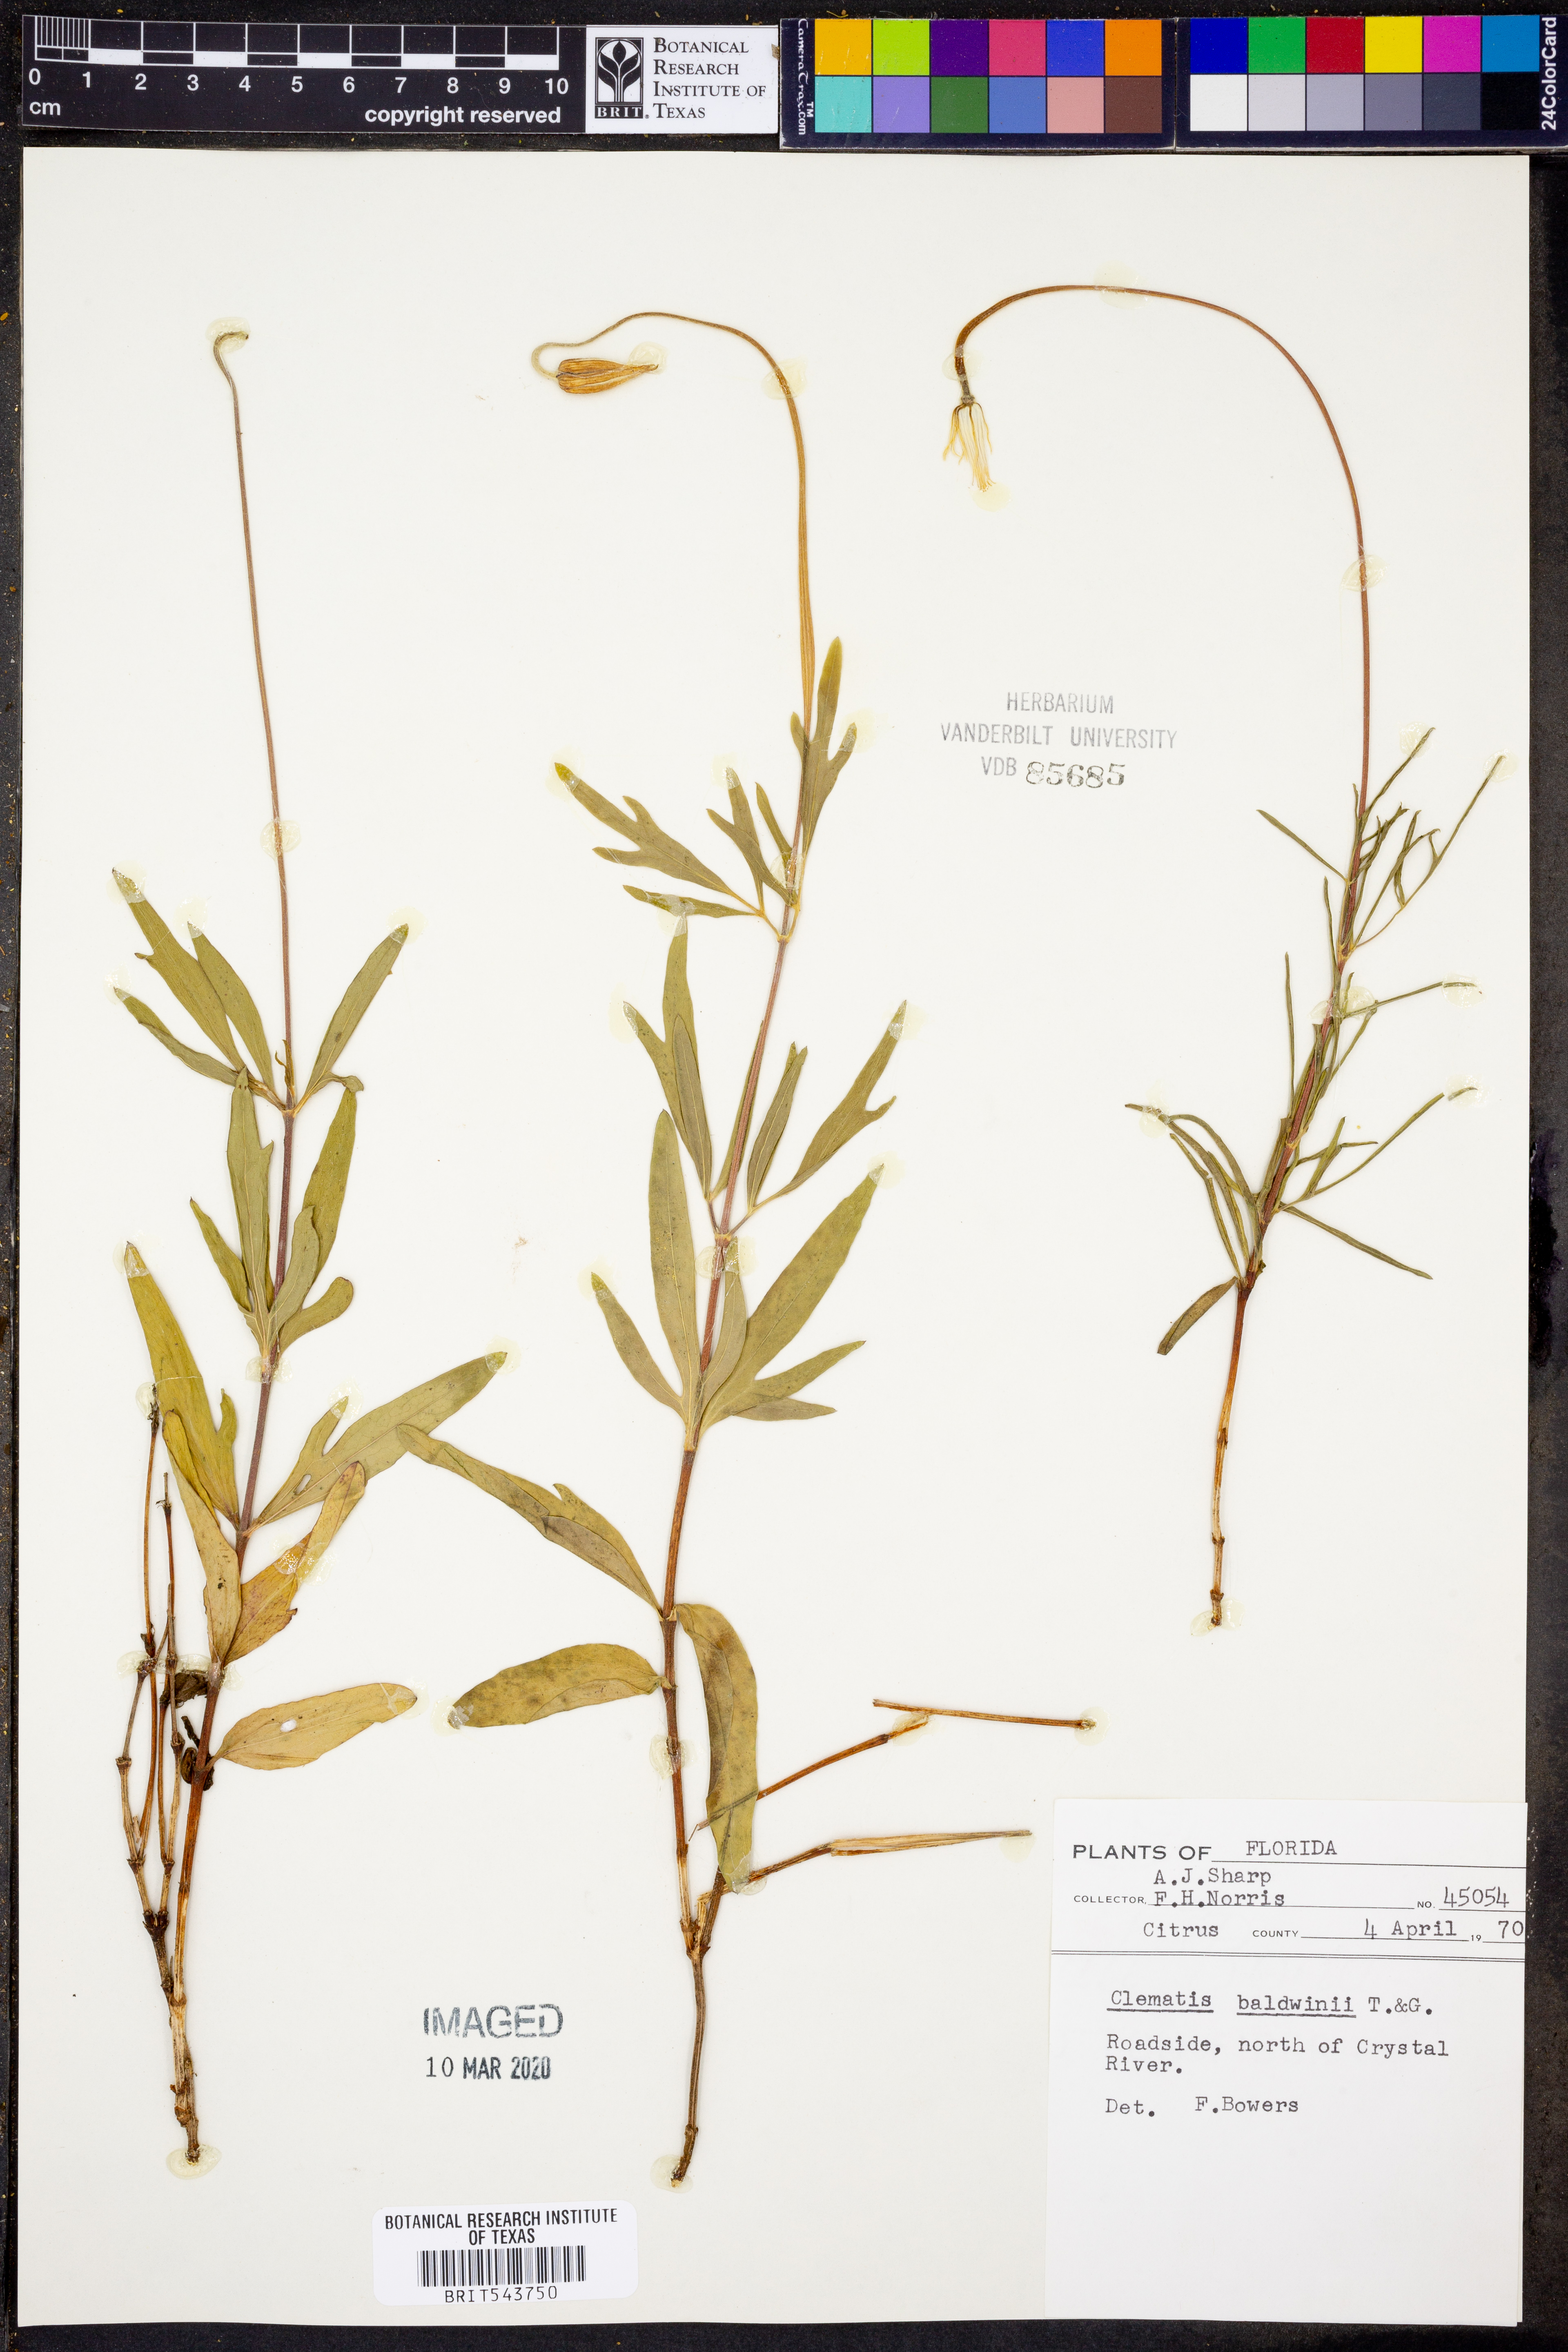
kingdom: Plantae
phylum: Tracheophyta
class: Magnoliopsida
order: Ranunculales
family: Ranunculaceae
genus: Clematis
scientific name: Clematis baldwinii
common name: Pine-hyacinth
